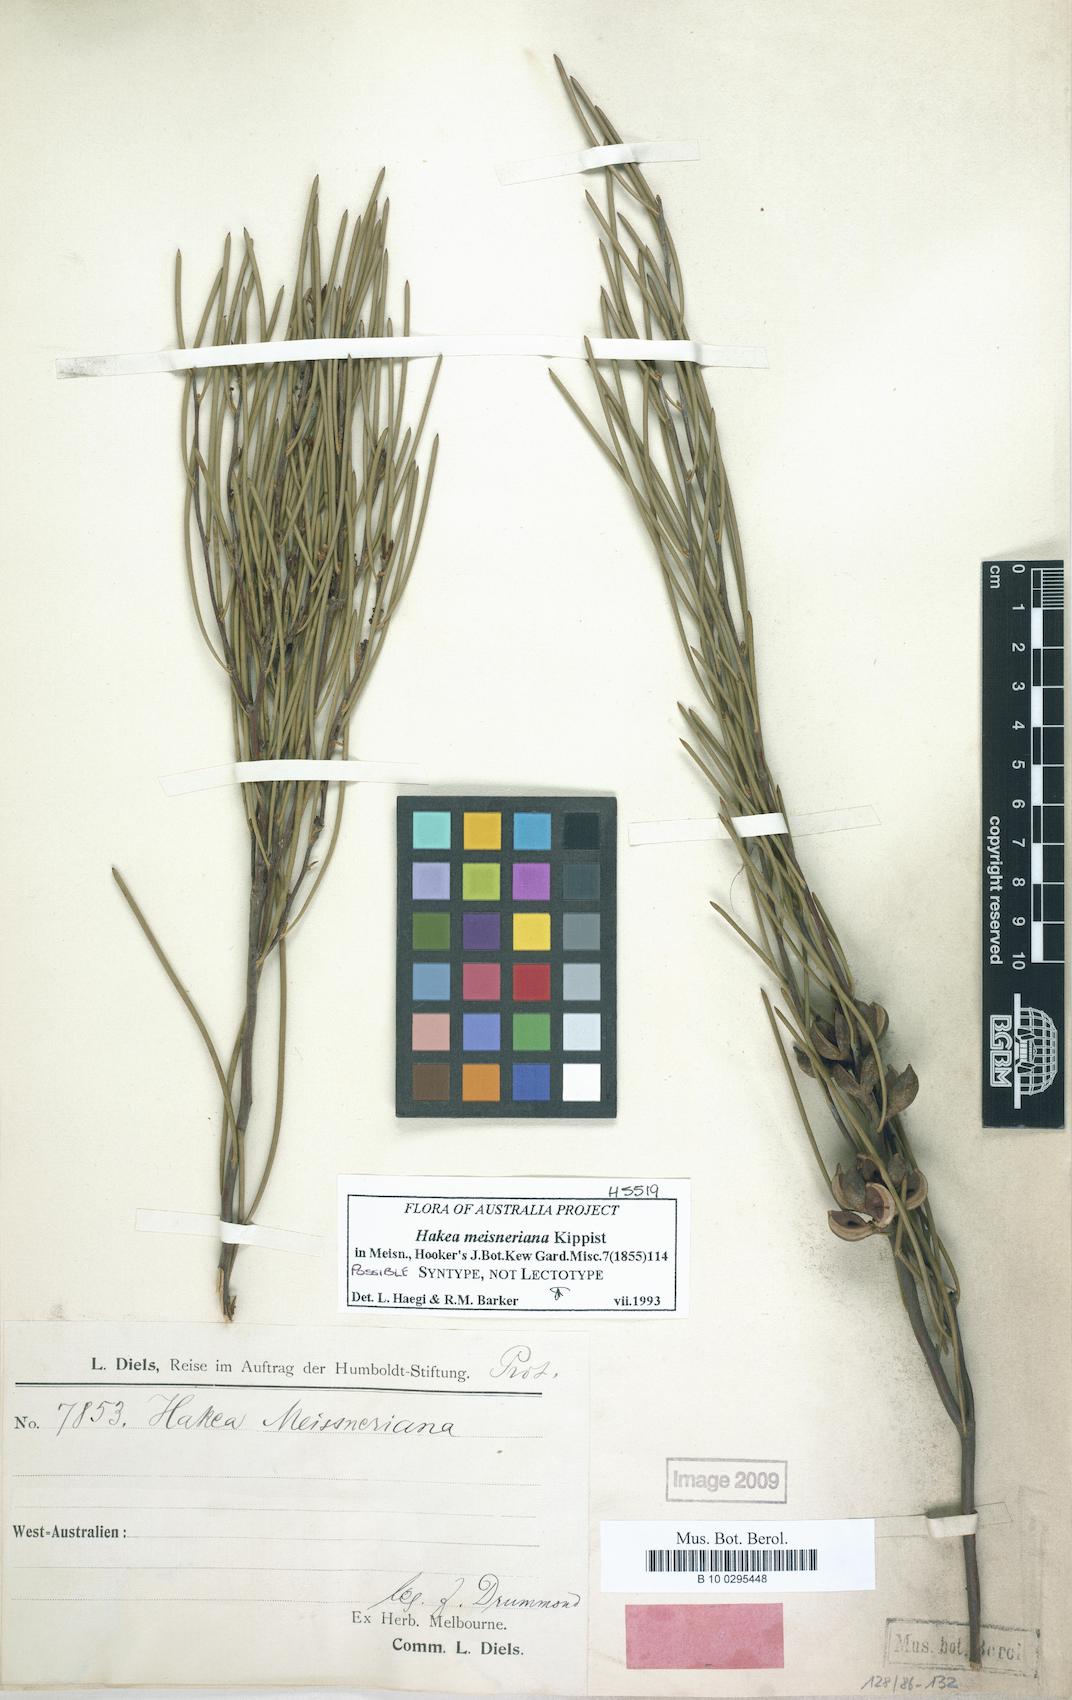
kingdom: Plantae
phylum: Tracheophyta
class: Magnoliopsida
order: Proteales
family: Proteaceae
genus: Hakea
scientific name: Hakea meisneriana
